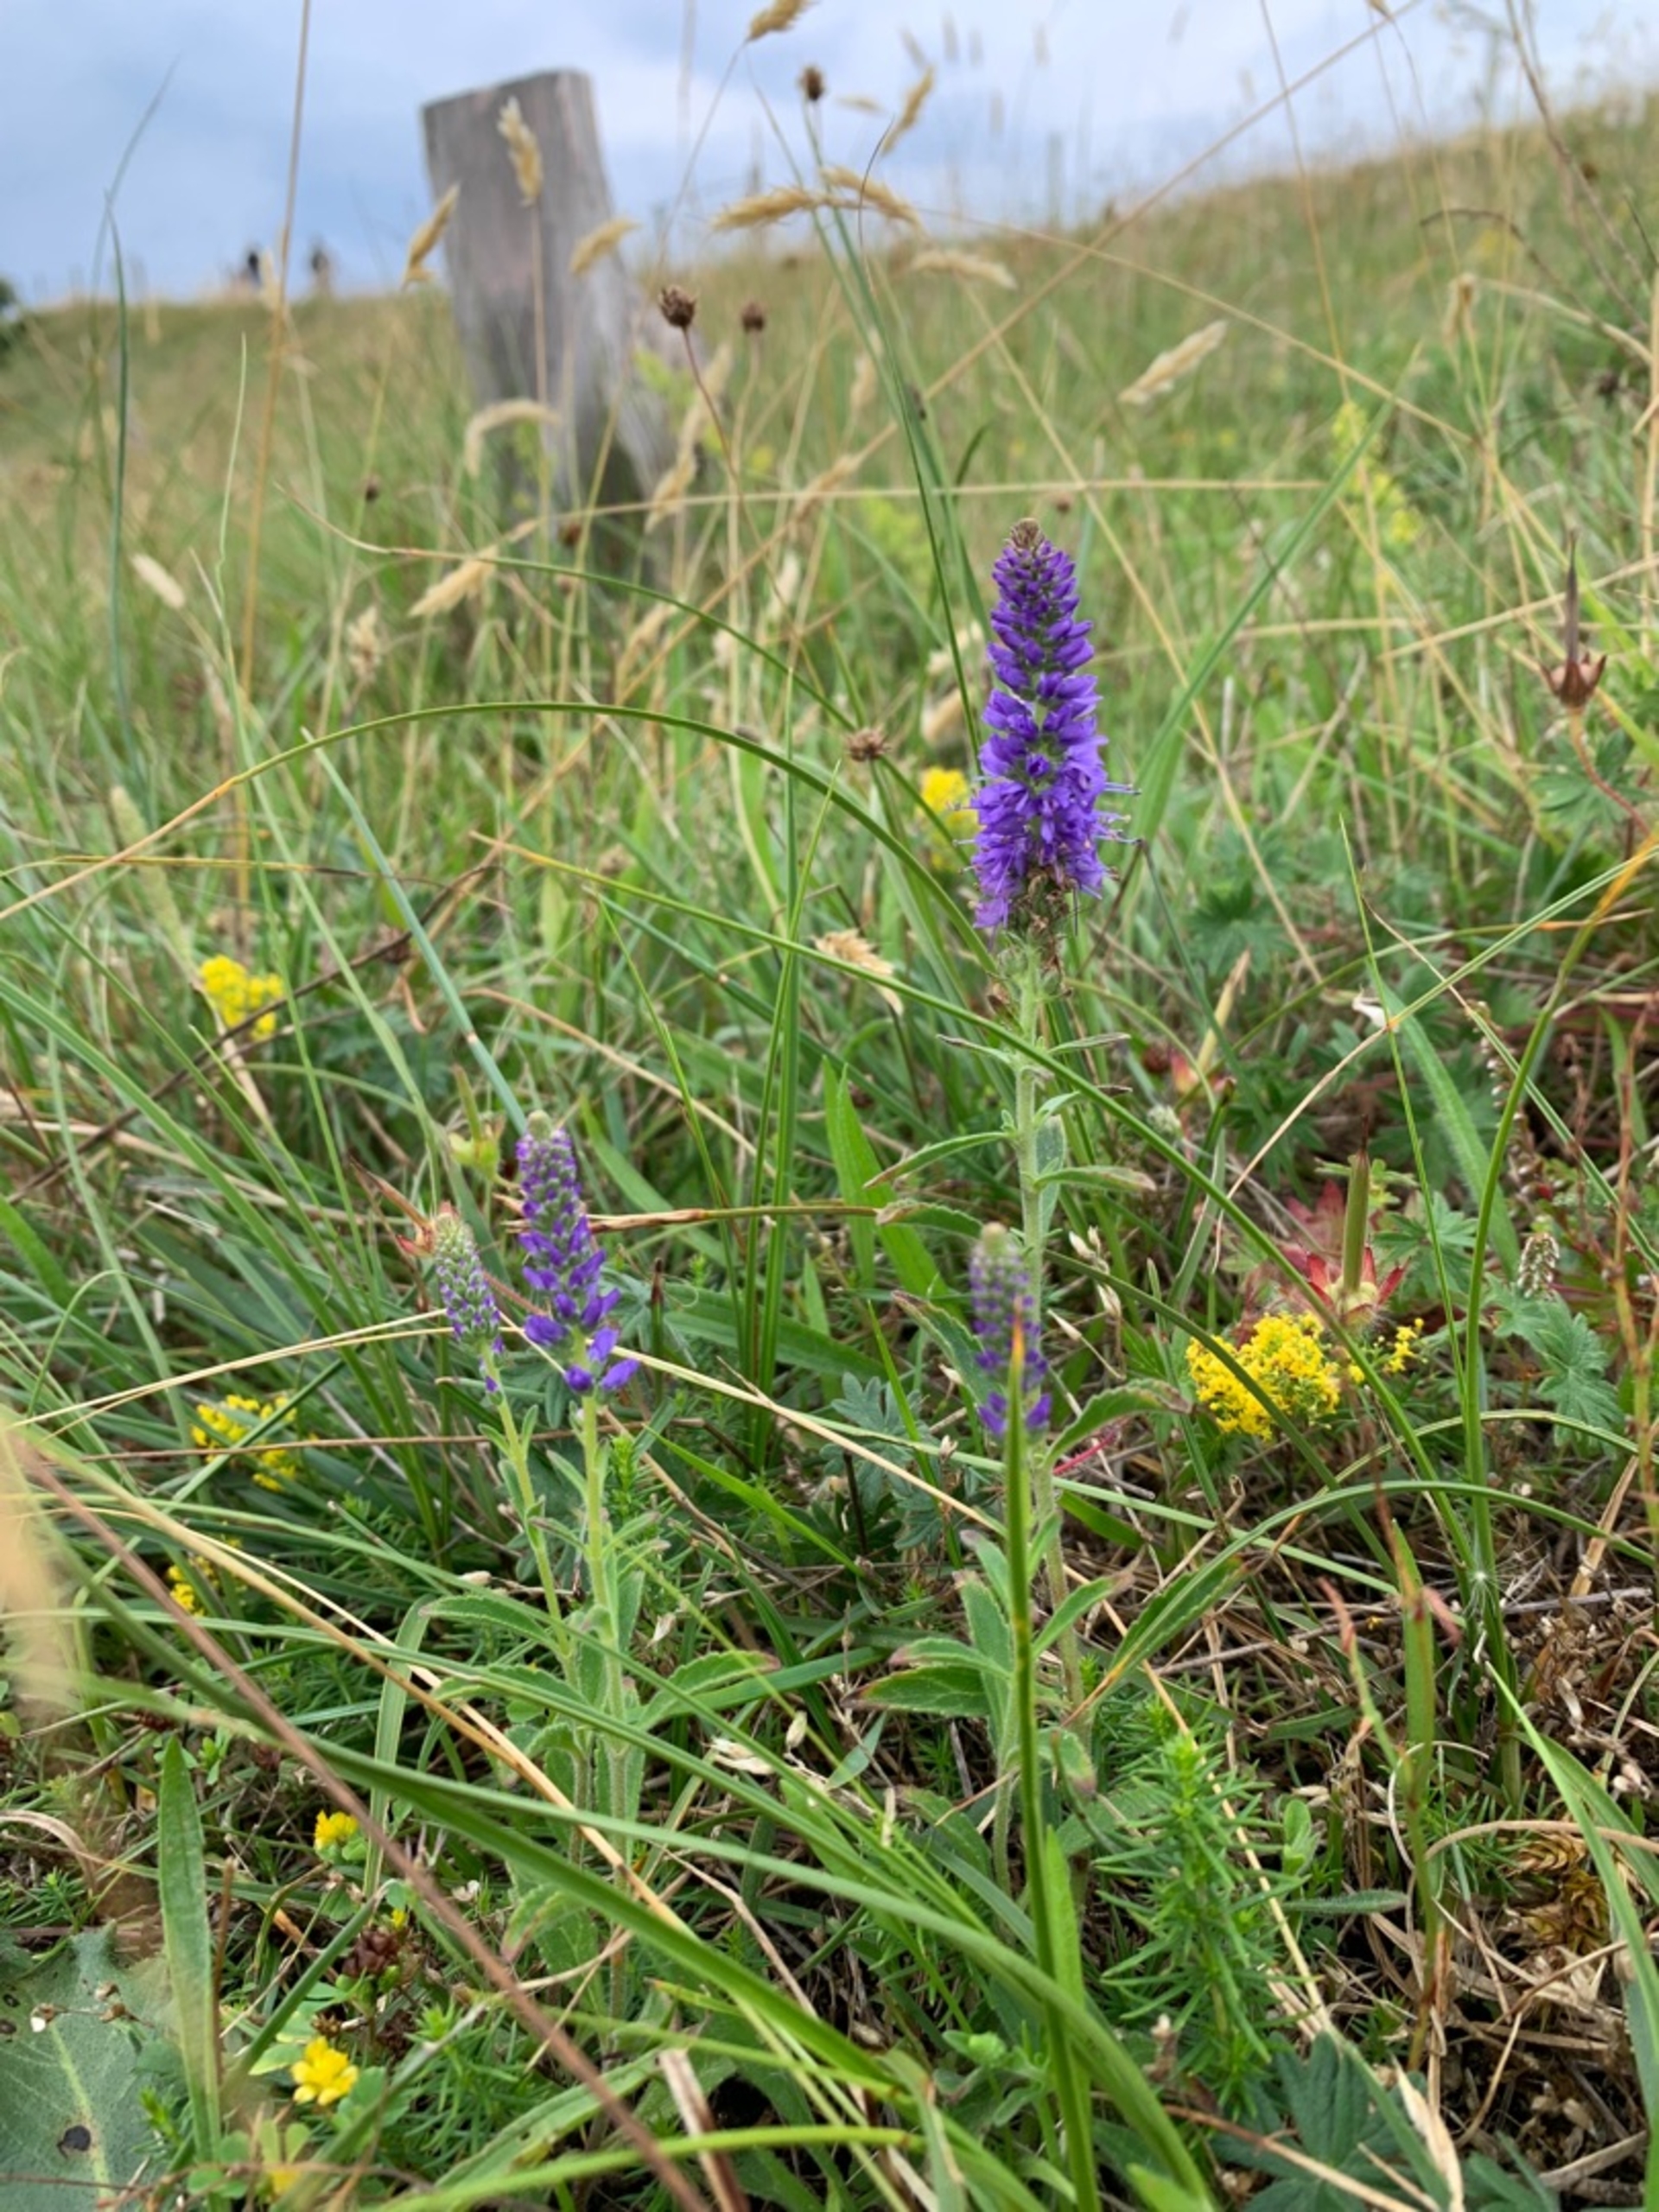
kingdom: Plantae
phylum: Tracheophyta
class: Magnoliopsida
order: Lamiales
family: Plantaginaceae
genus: Veronica
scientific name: Veronica spicata
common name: Aks-ærenpris
